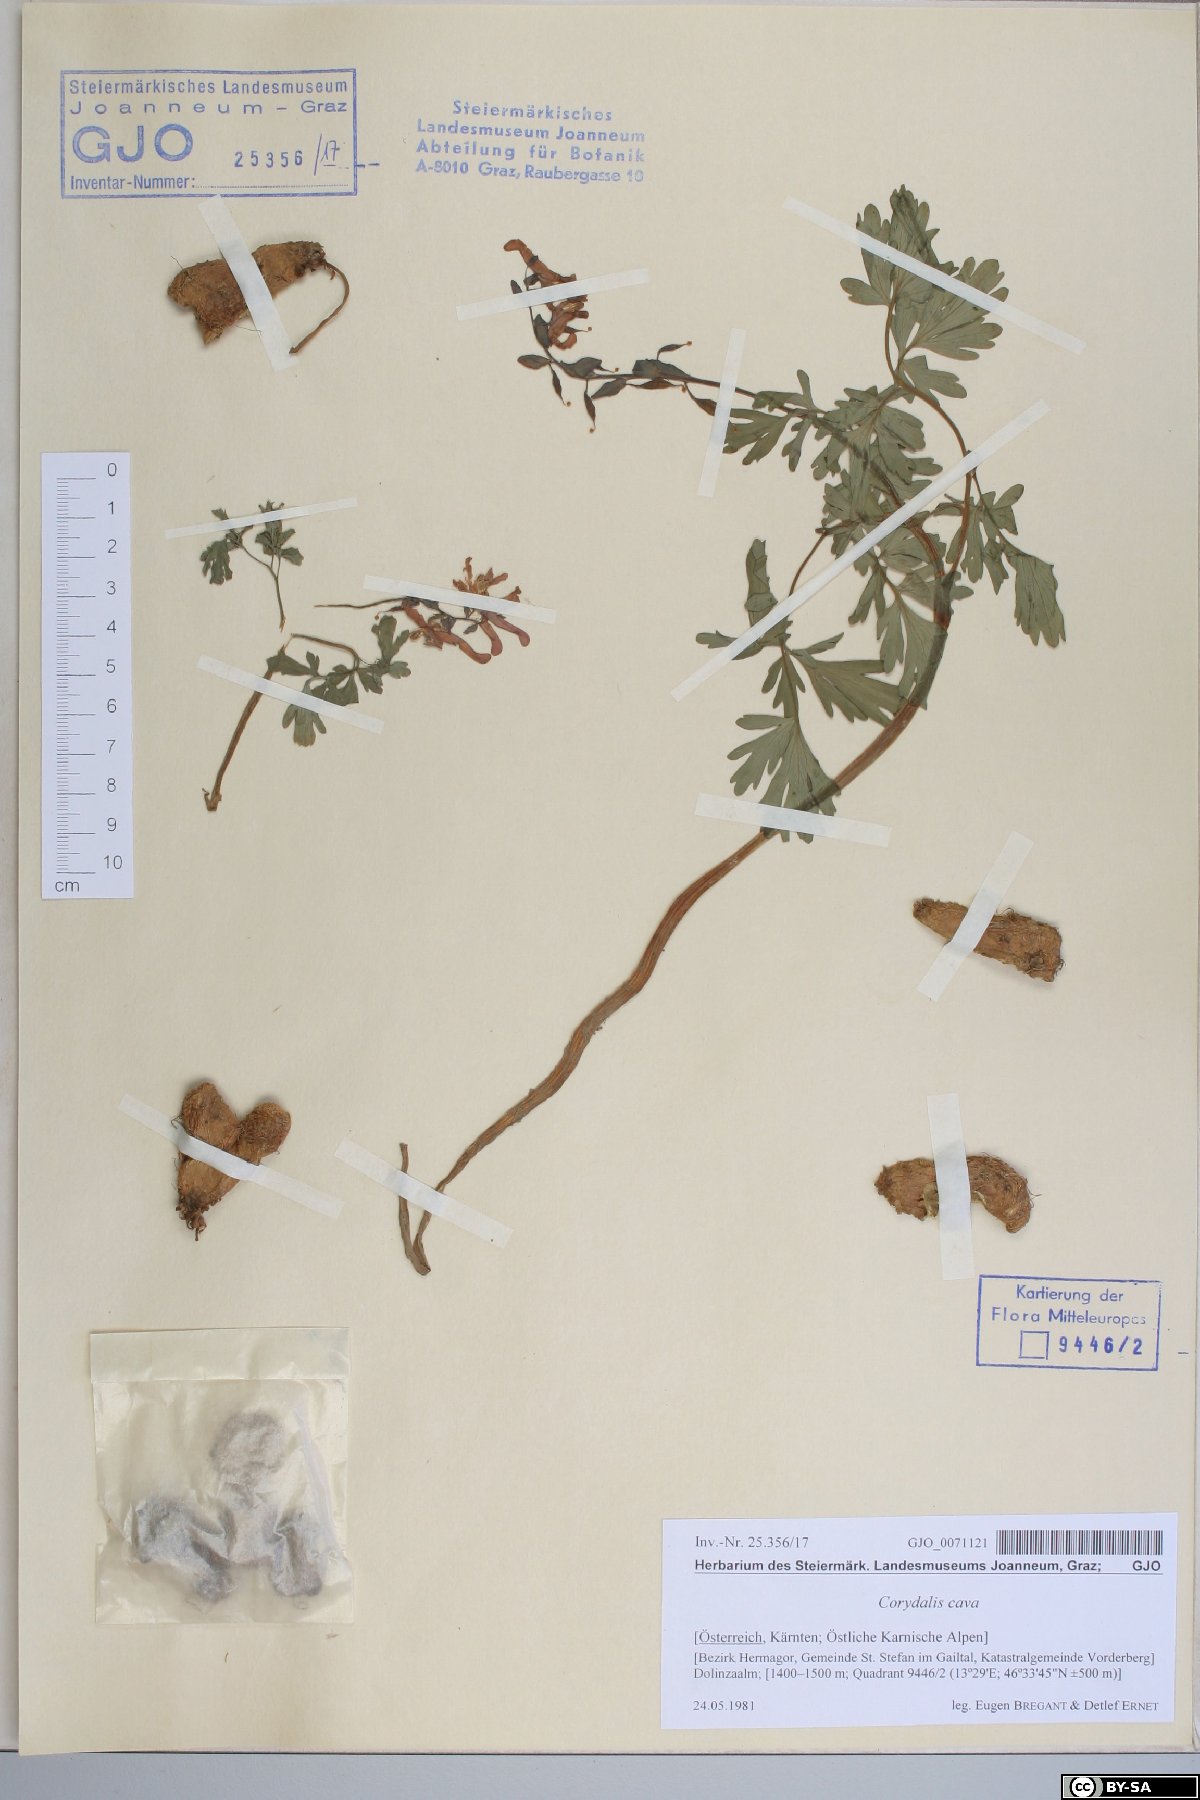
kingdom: Plantae
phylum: Tracheophyta
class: Magnoliopsida
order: Ranunculales
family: Papaveraceae
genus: Corydalis
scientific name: Corydalis cava
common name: Hollowroot
